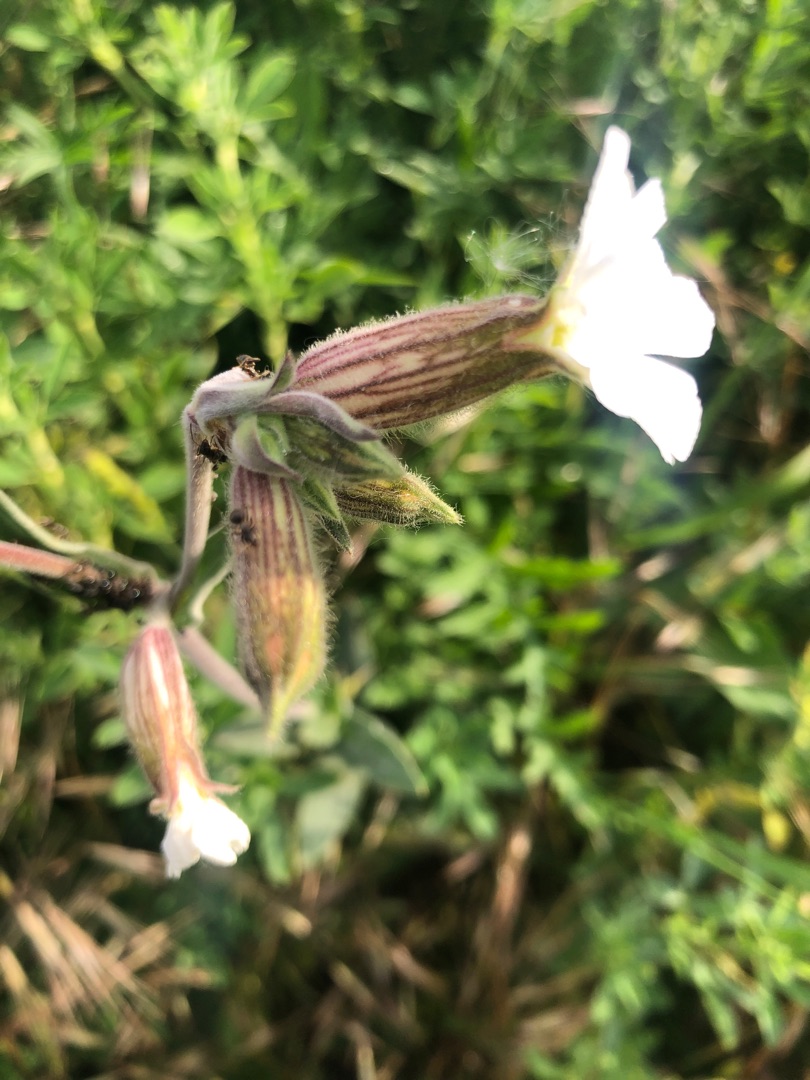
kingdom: Plantae
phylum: Tracheophyta
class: Magnoliopsida
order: Caryophyllales
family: Caryophyllaceae
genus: Silene
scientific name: Silene latifolia
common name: Aftenpragtstjerne
